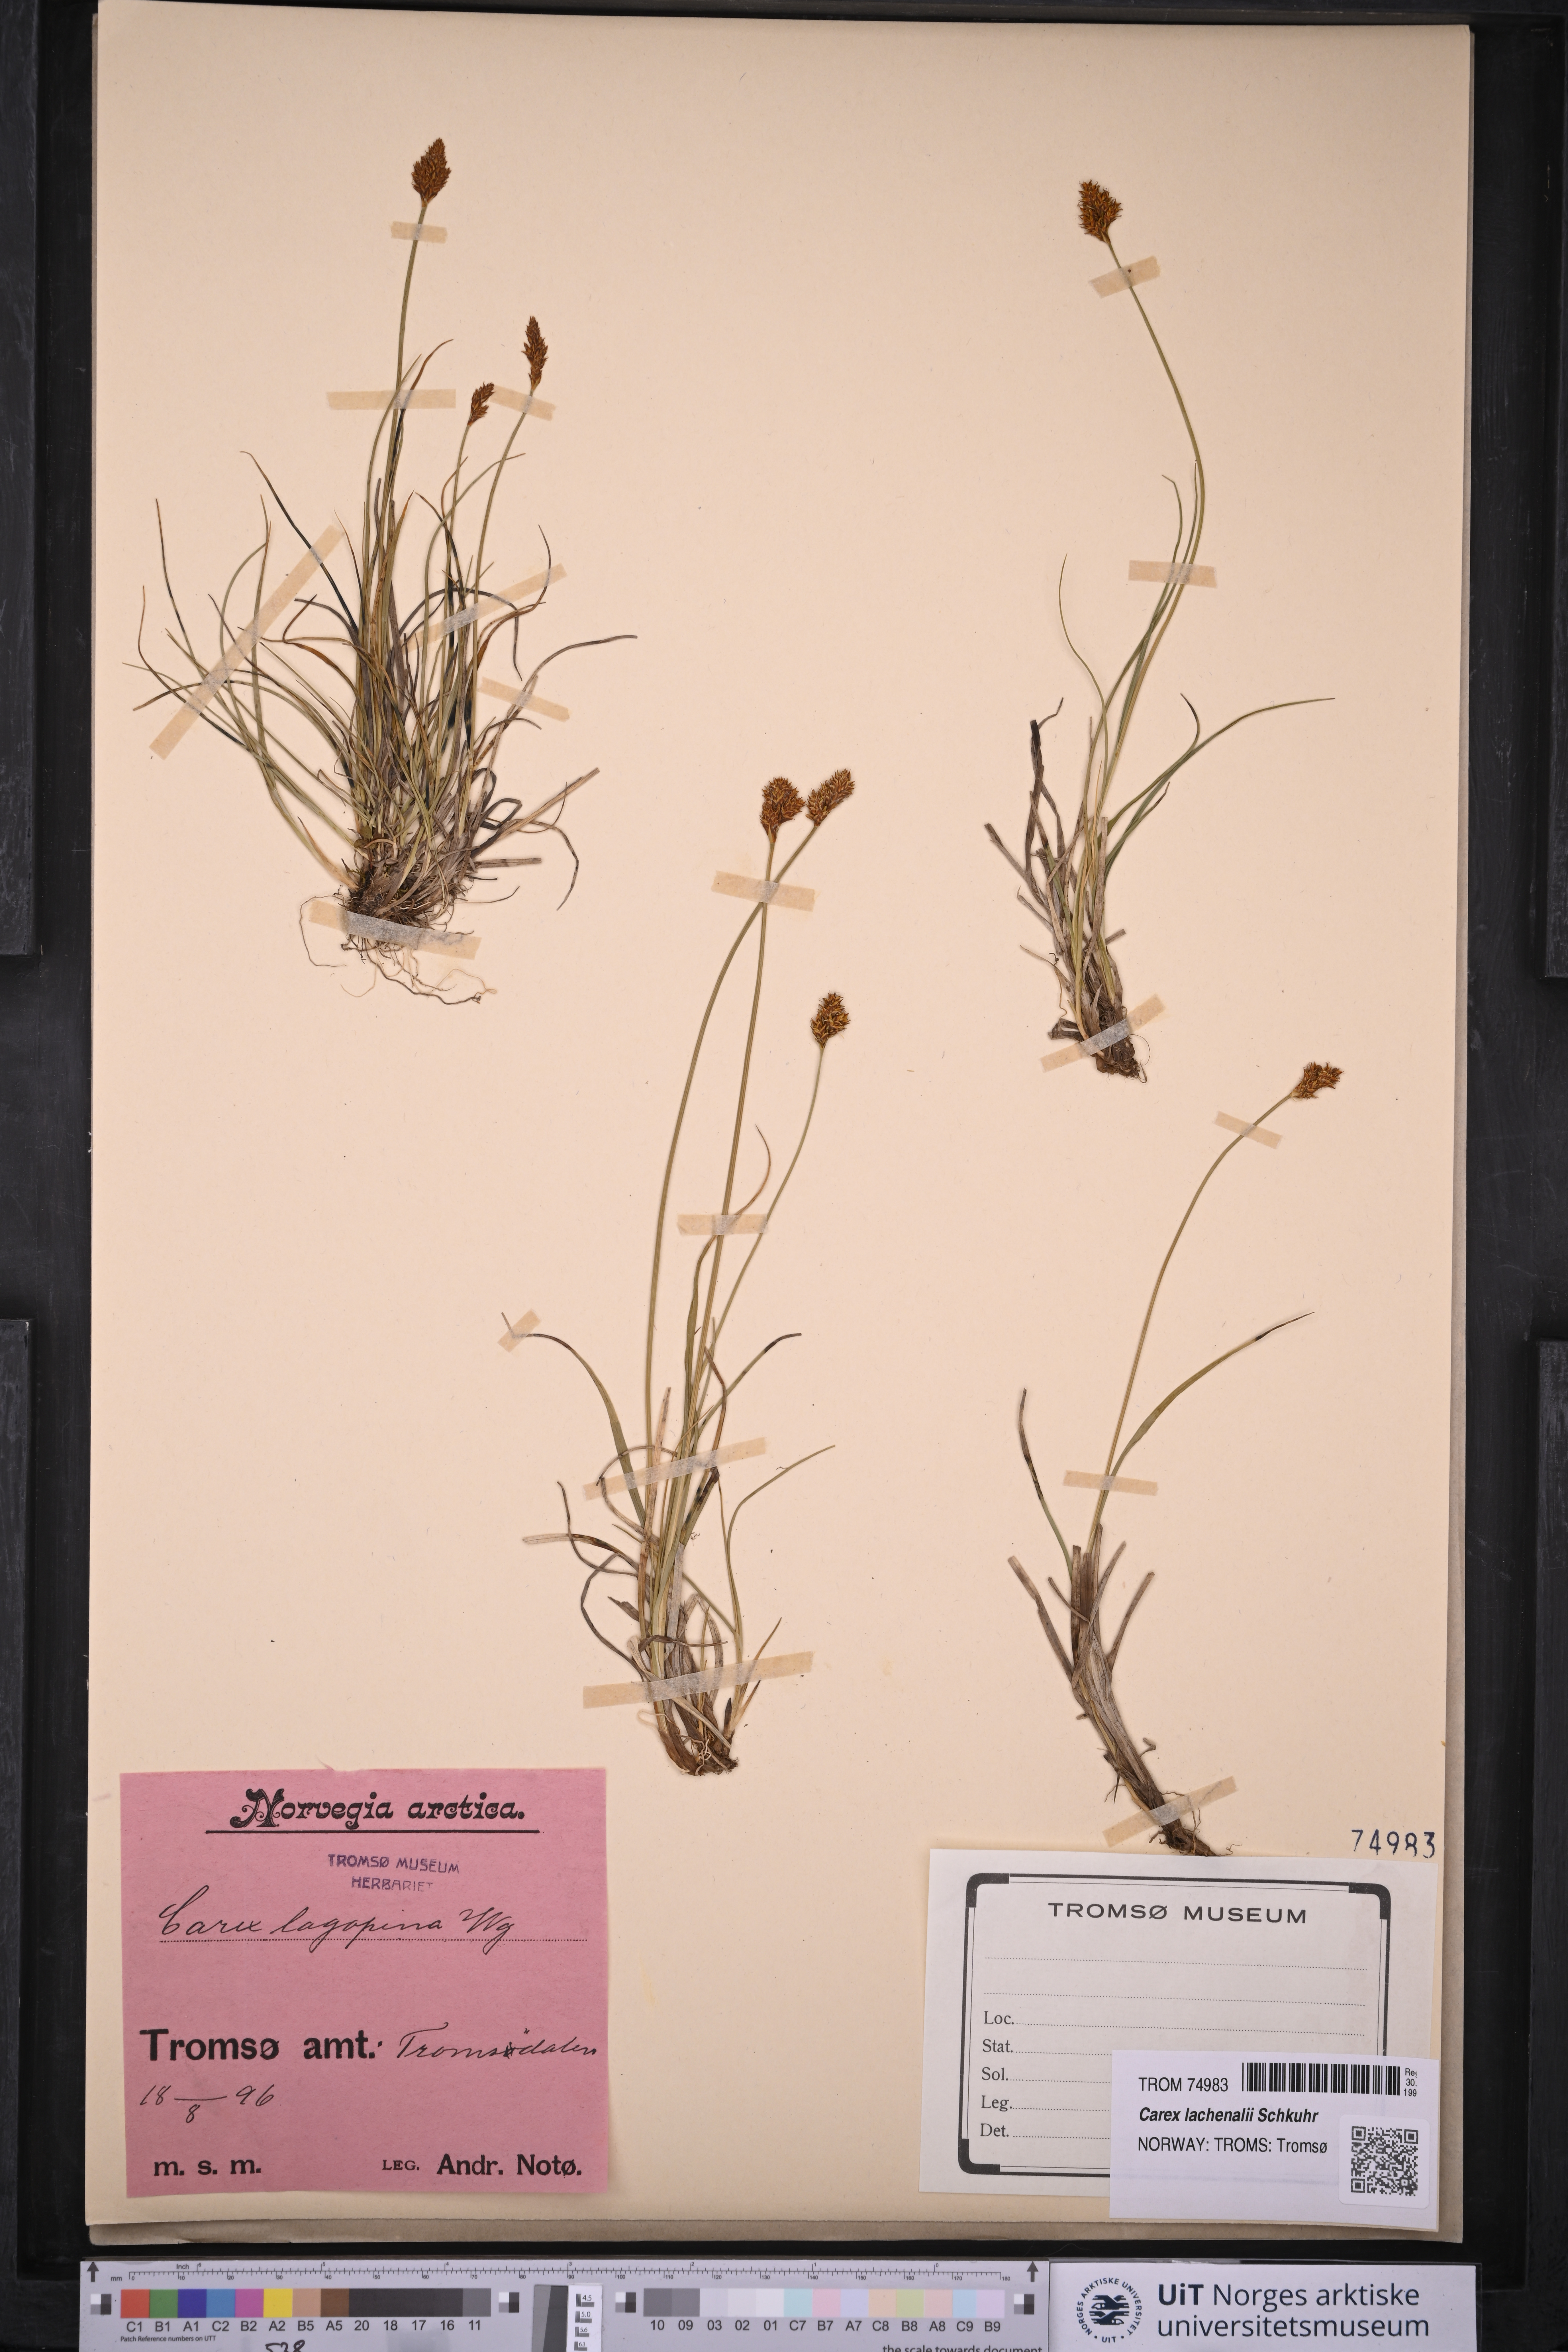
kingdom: Plantae
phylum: Tracheophyta
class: Liliopsida
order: Poales
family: Cyperaceae
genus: Carex
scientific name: Carex lachenalii
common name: Hare's-foot sedge
